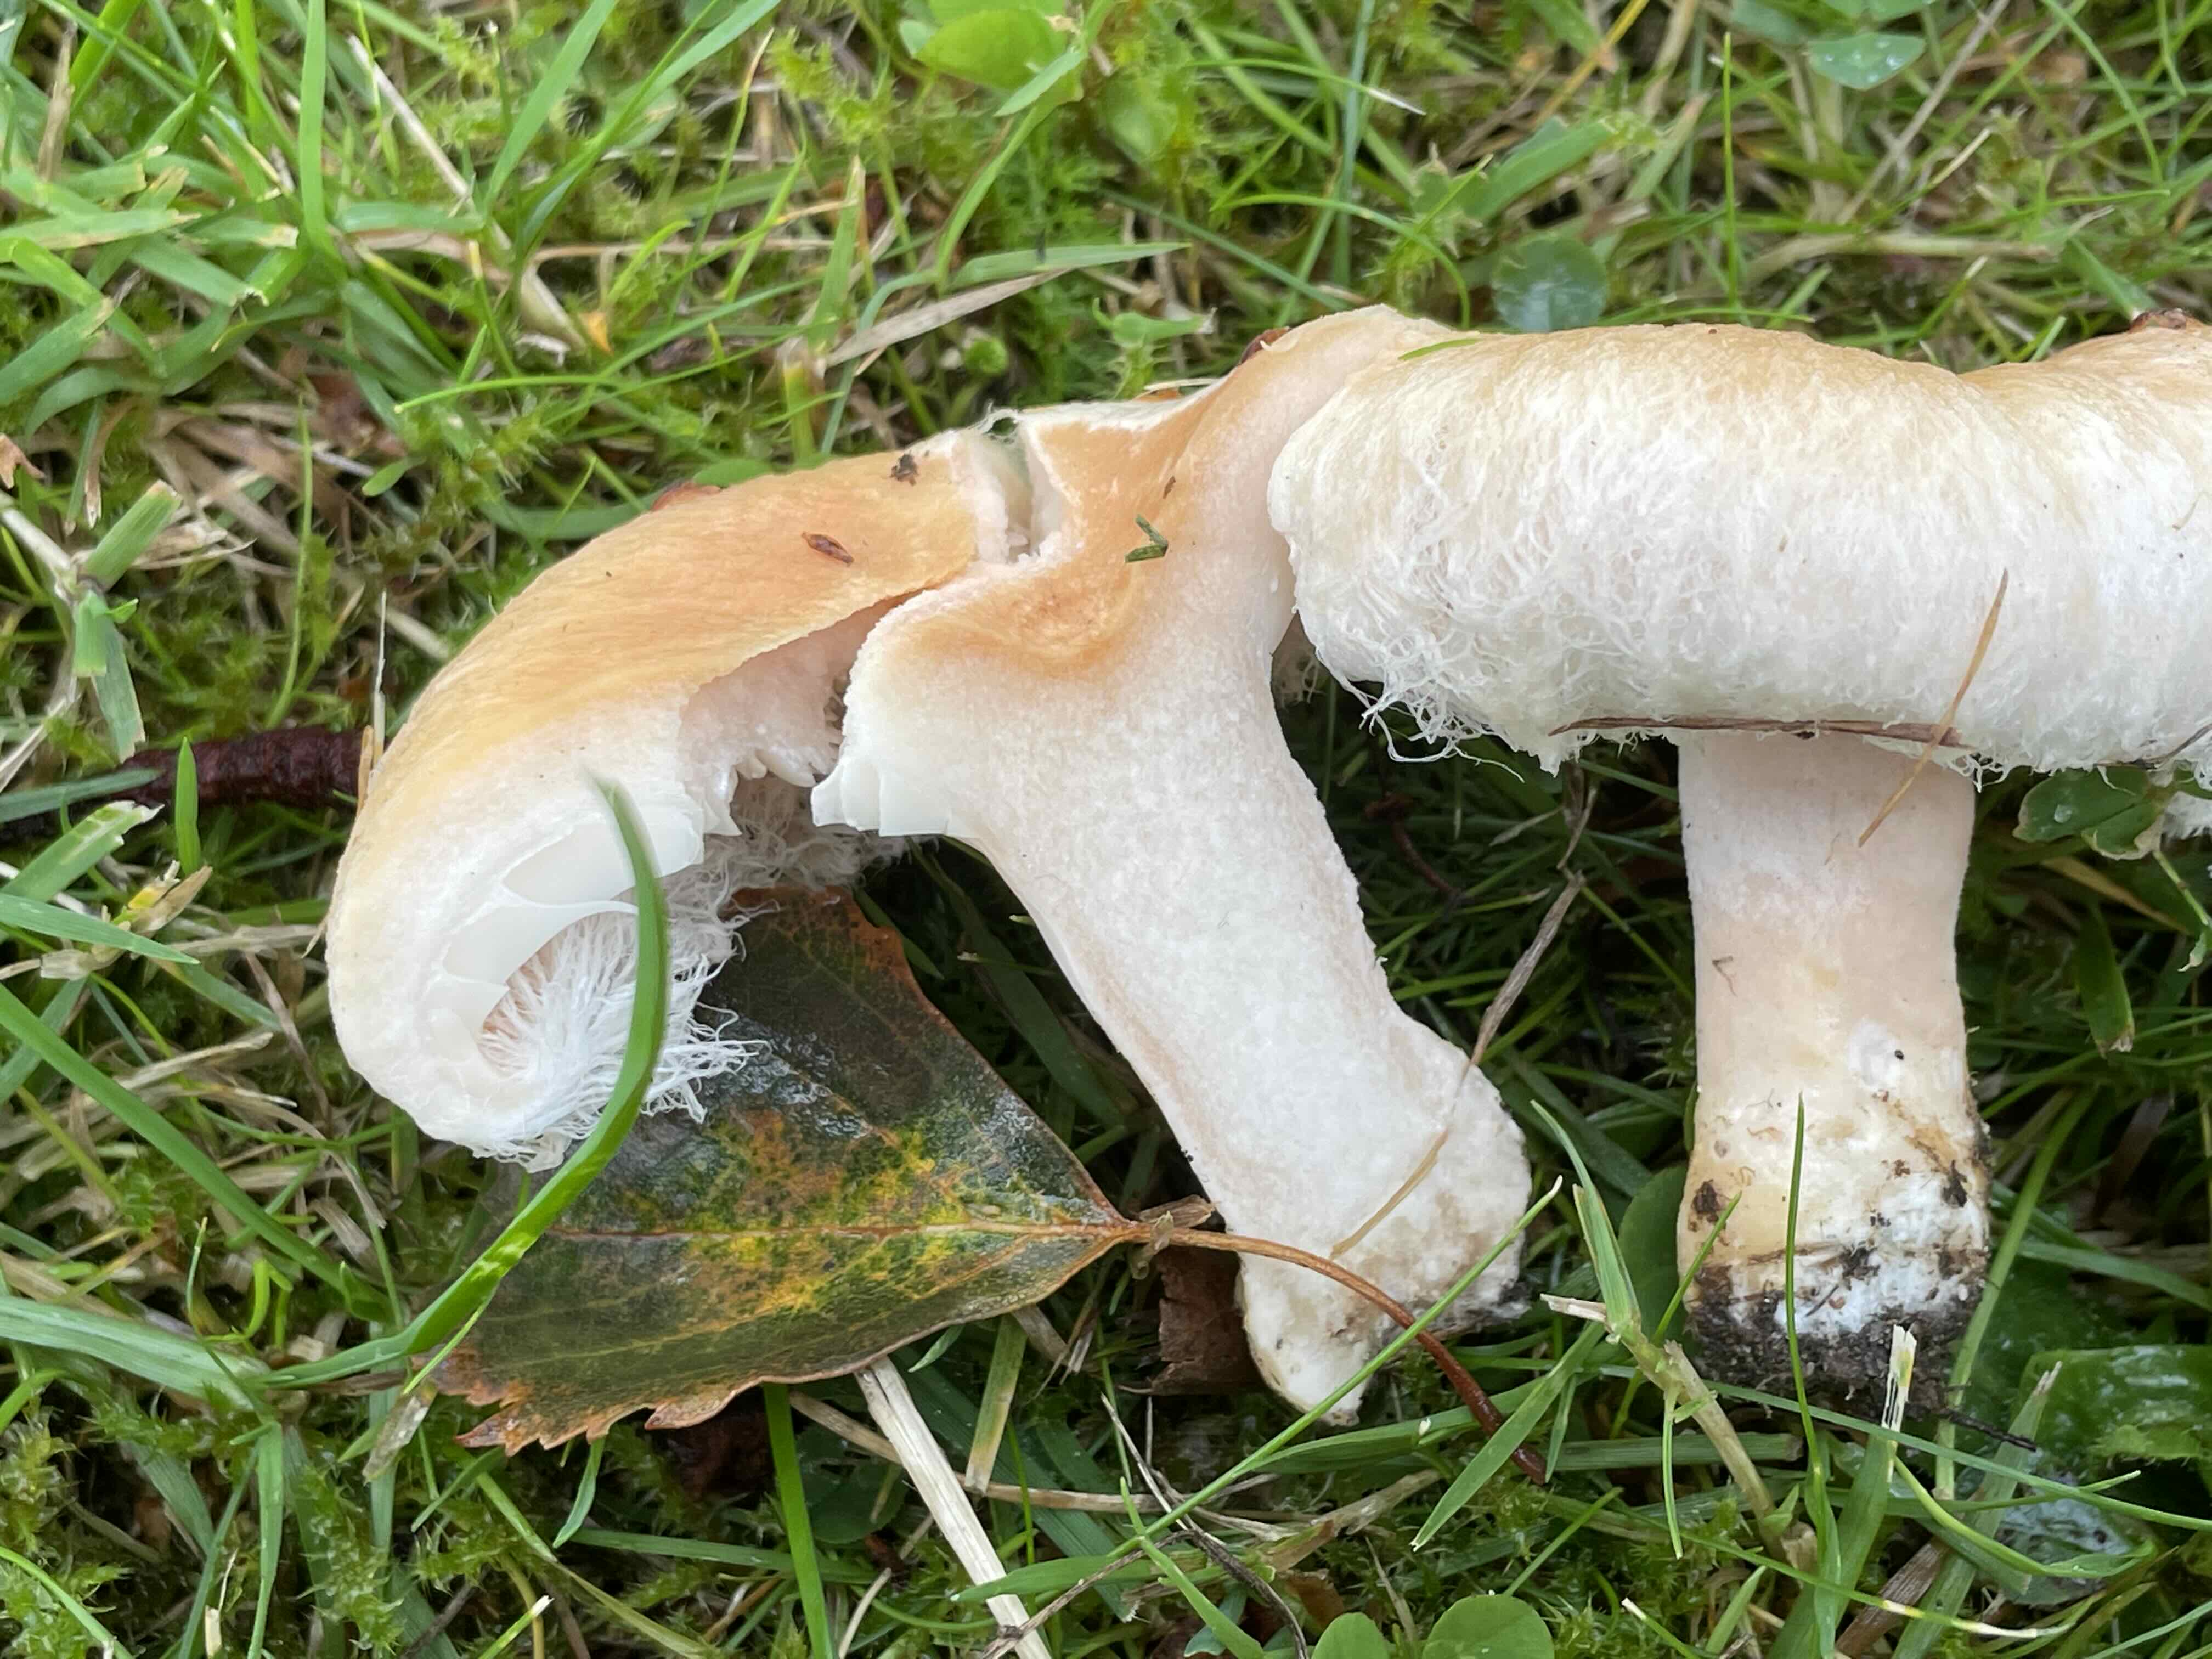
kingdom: Fungi
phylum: Basidiomycota
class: Agaricomycetes
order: Russulales
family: Russulaceae
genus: Lactarius
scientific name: Lactarius pubescens
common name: dunet mælkehat
